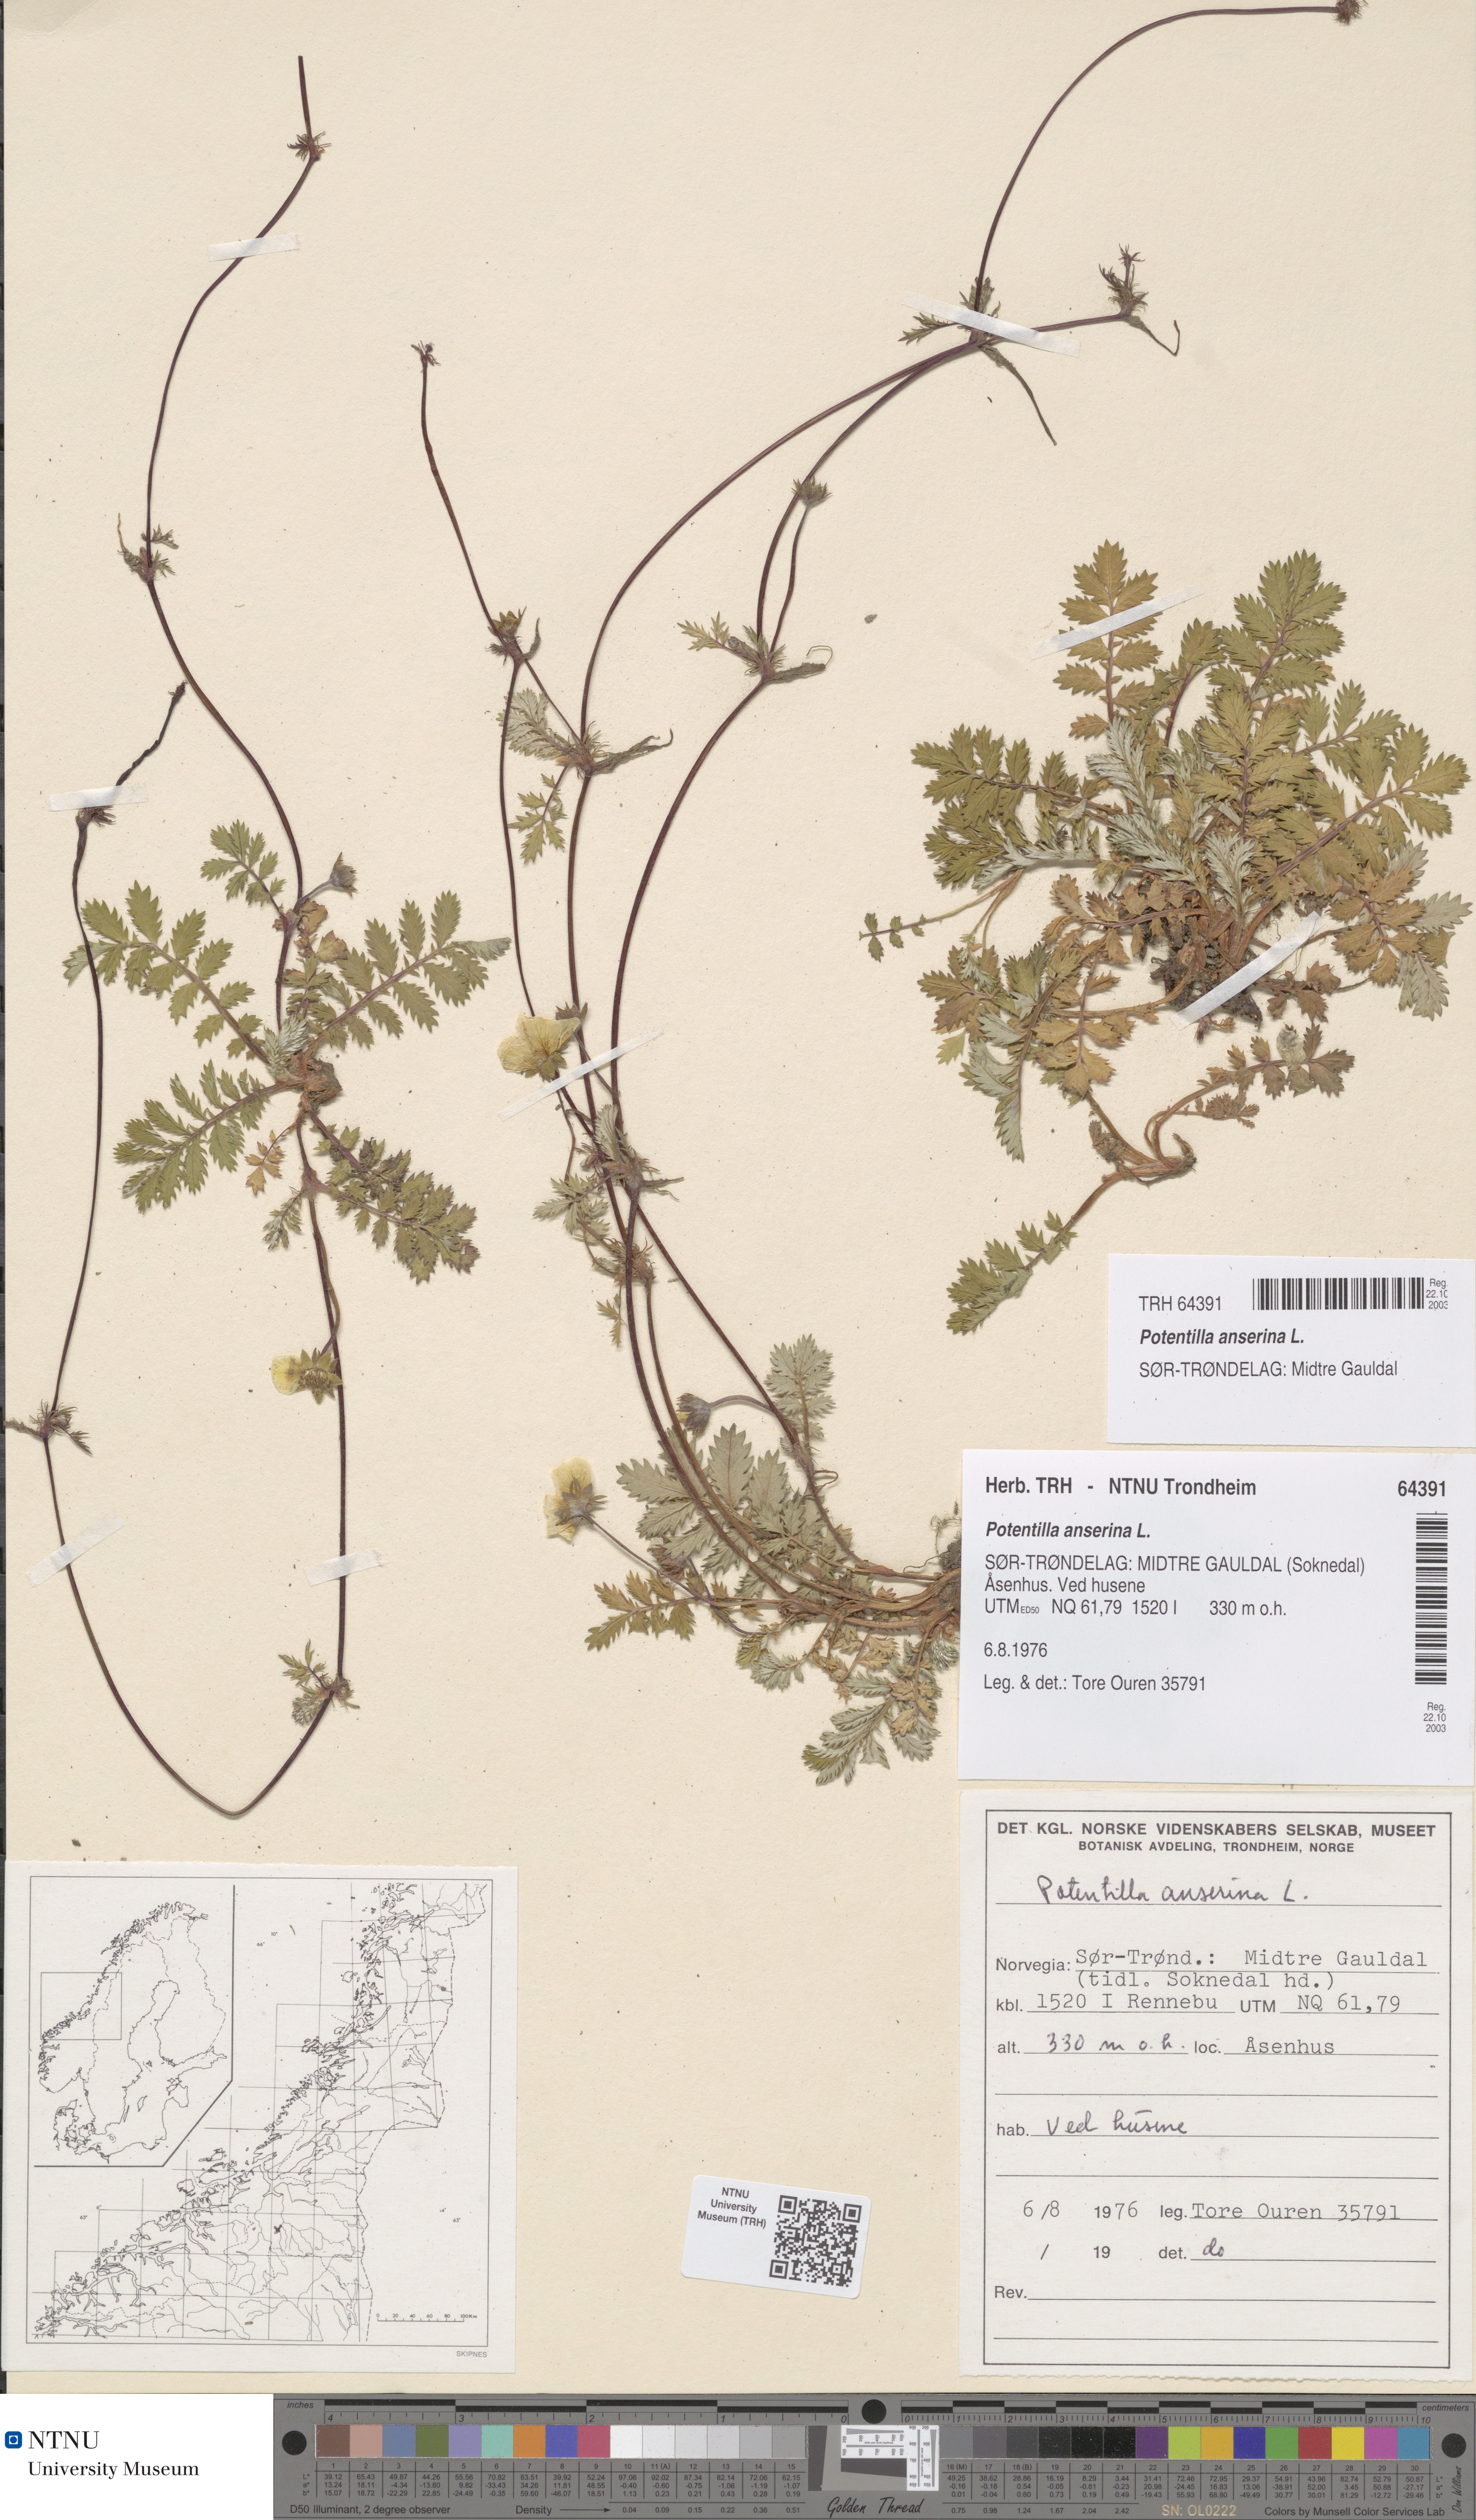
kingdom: Plantae
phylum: Tracheophyta
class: Magnoliopsida
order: Rosales
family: Rosaceae
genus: Argentina
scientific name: Argentina anserina
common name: Common silverweed
